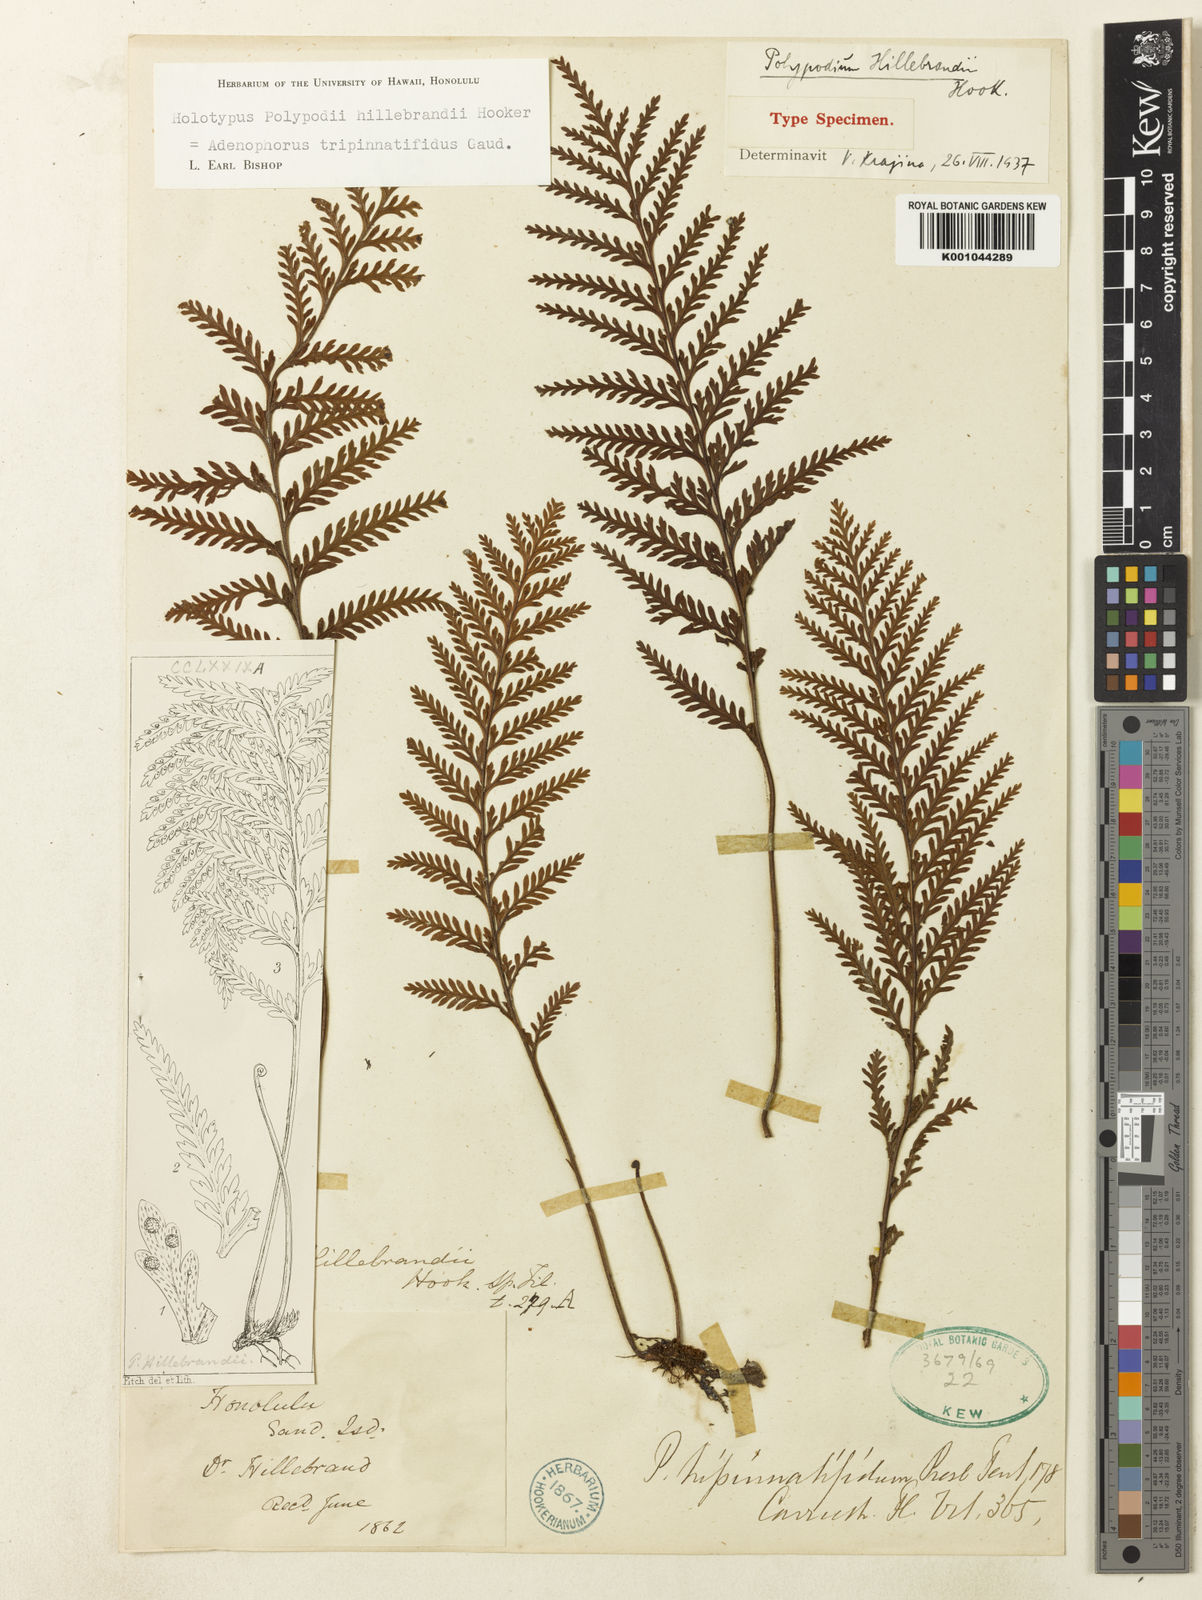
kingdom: Plantae
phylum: Tracheophyta
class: Polypodiopsida
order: Polypodiales
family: Polypodiaceae
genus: Adenophorus
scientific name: Adenophorus tripinnatifidus
